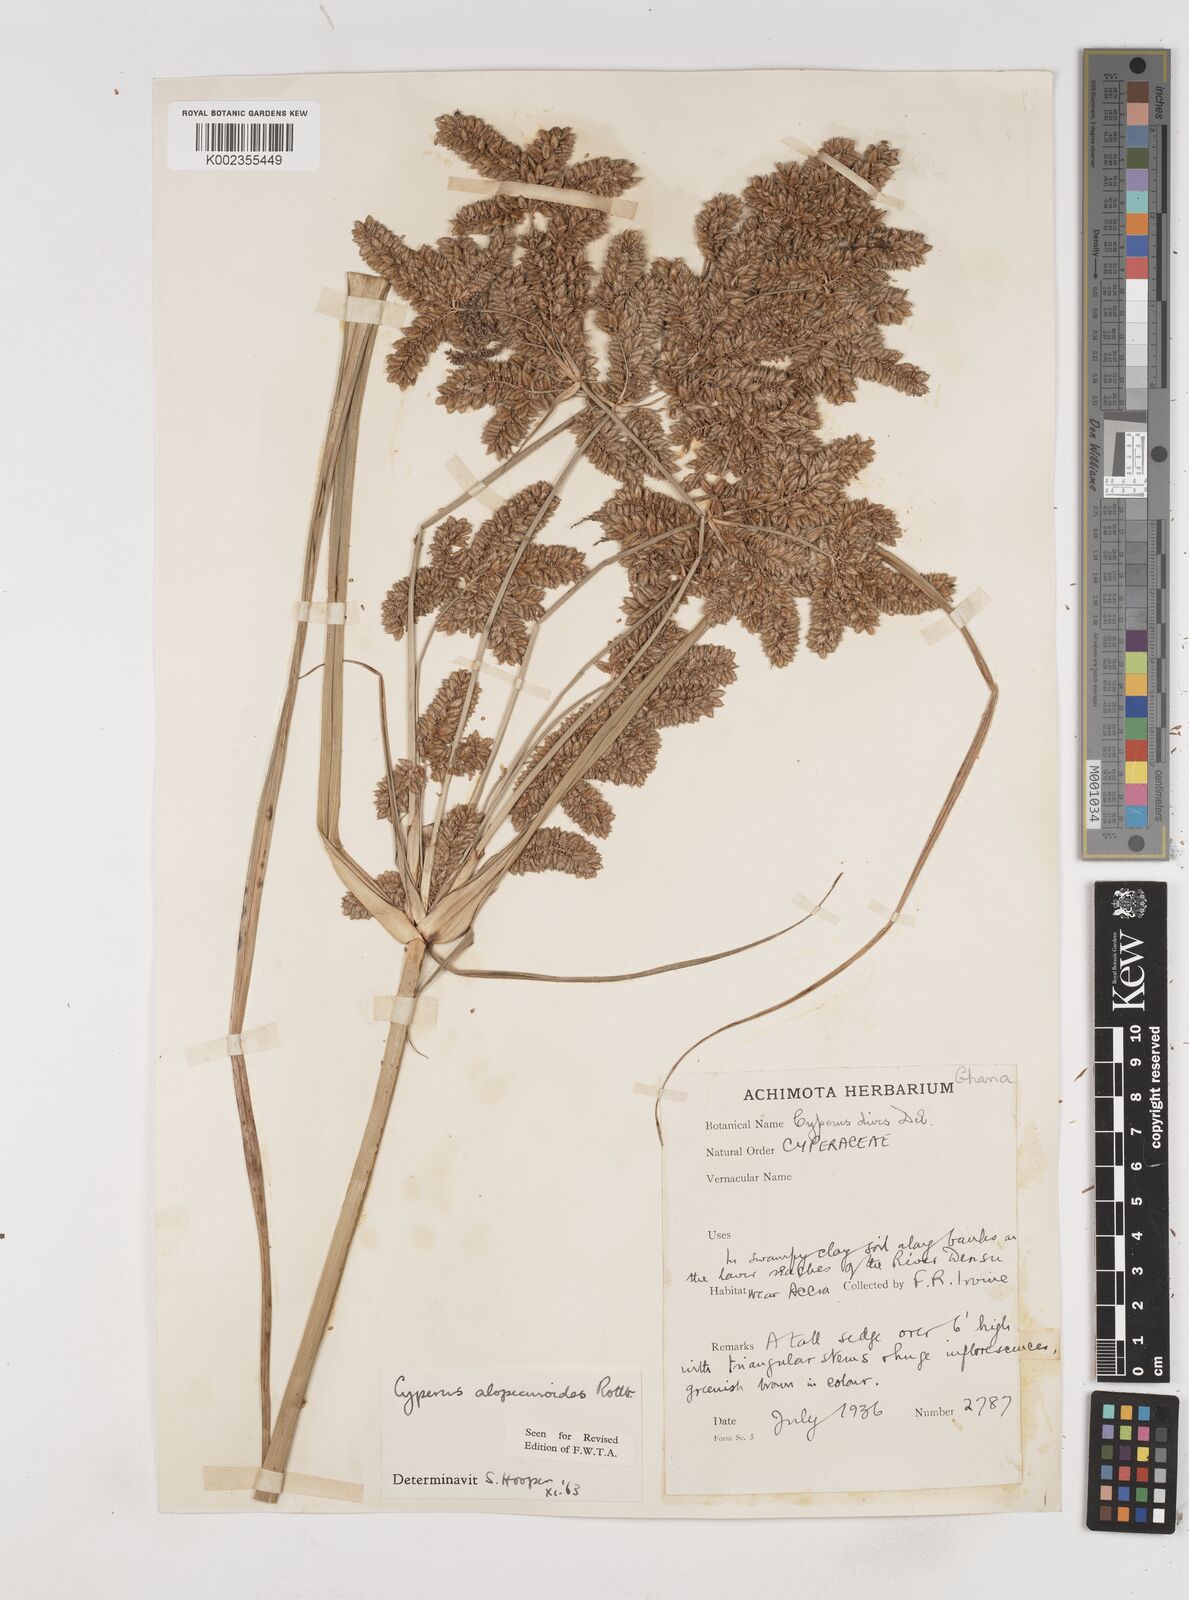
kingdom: Plantae
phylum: Tracheophyta
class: Liliopsida
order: Poales
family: Cyperaceae
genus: Cyperus
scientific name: Cyperus alopecuroides
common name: Foxtail flatsedge
